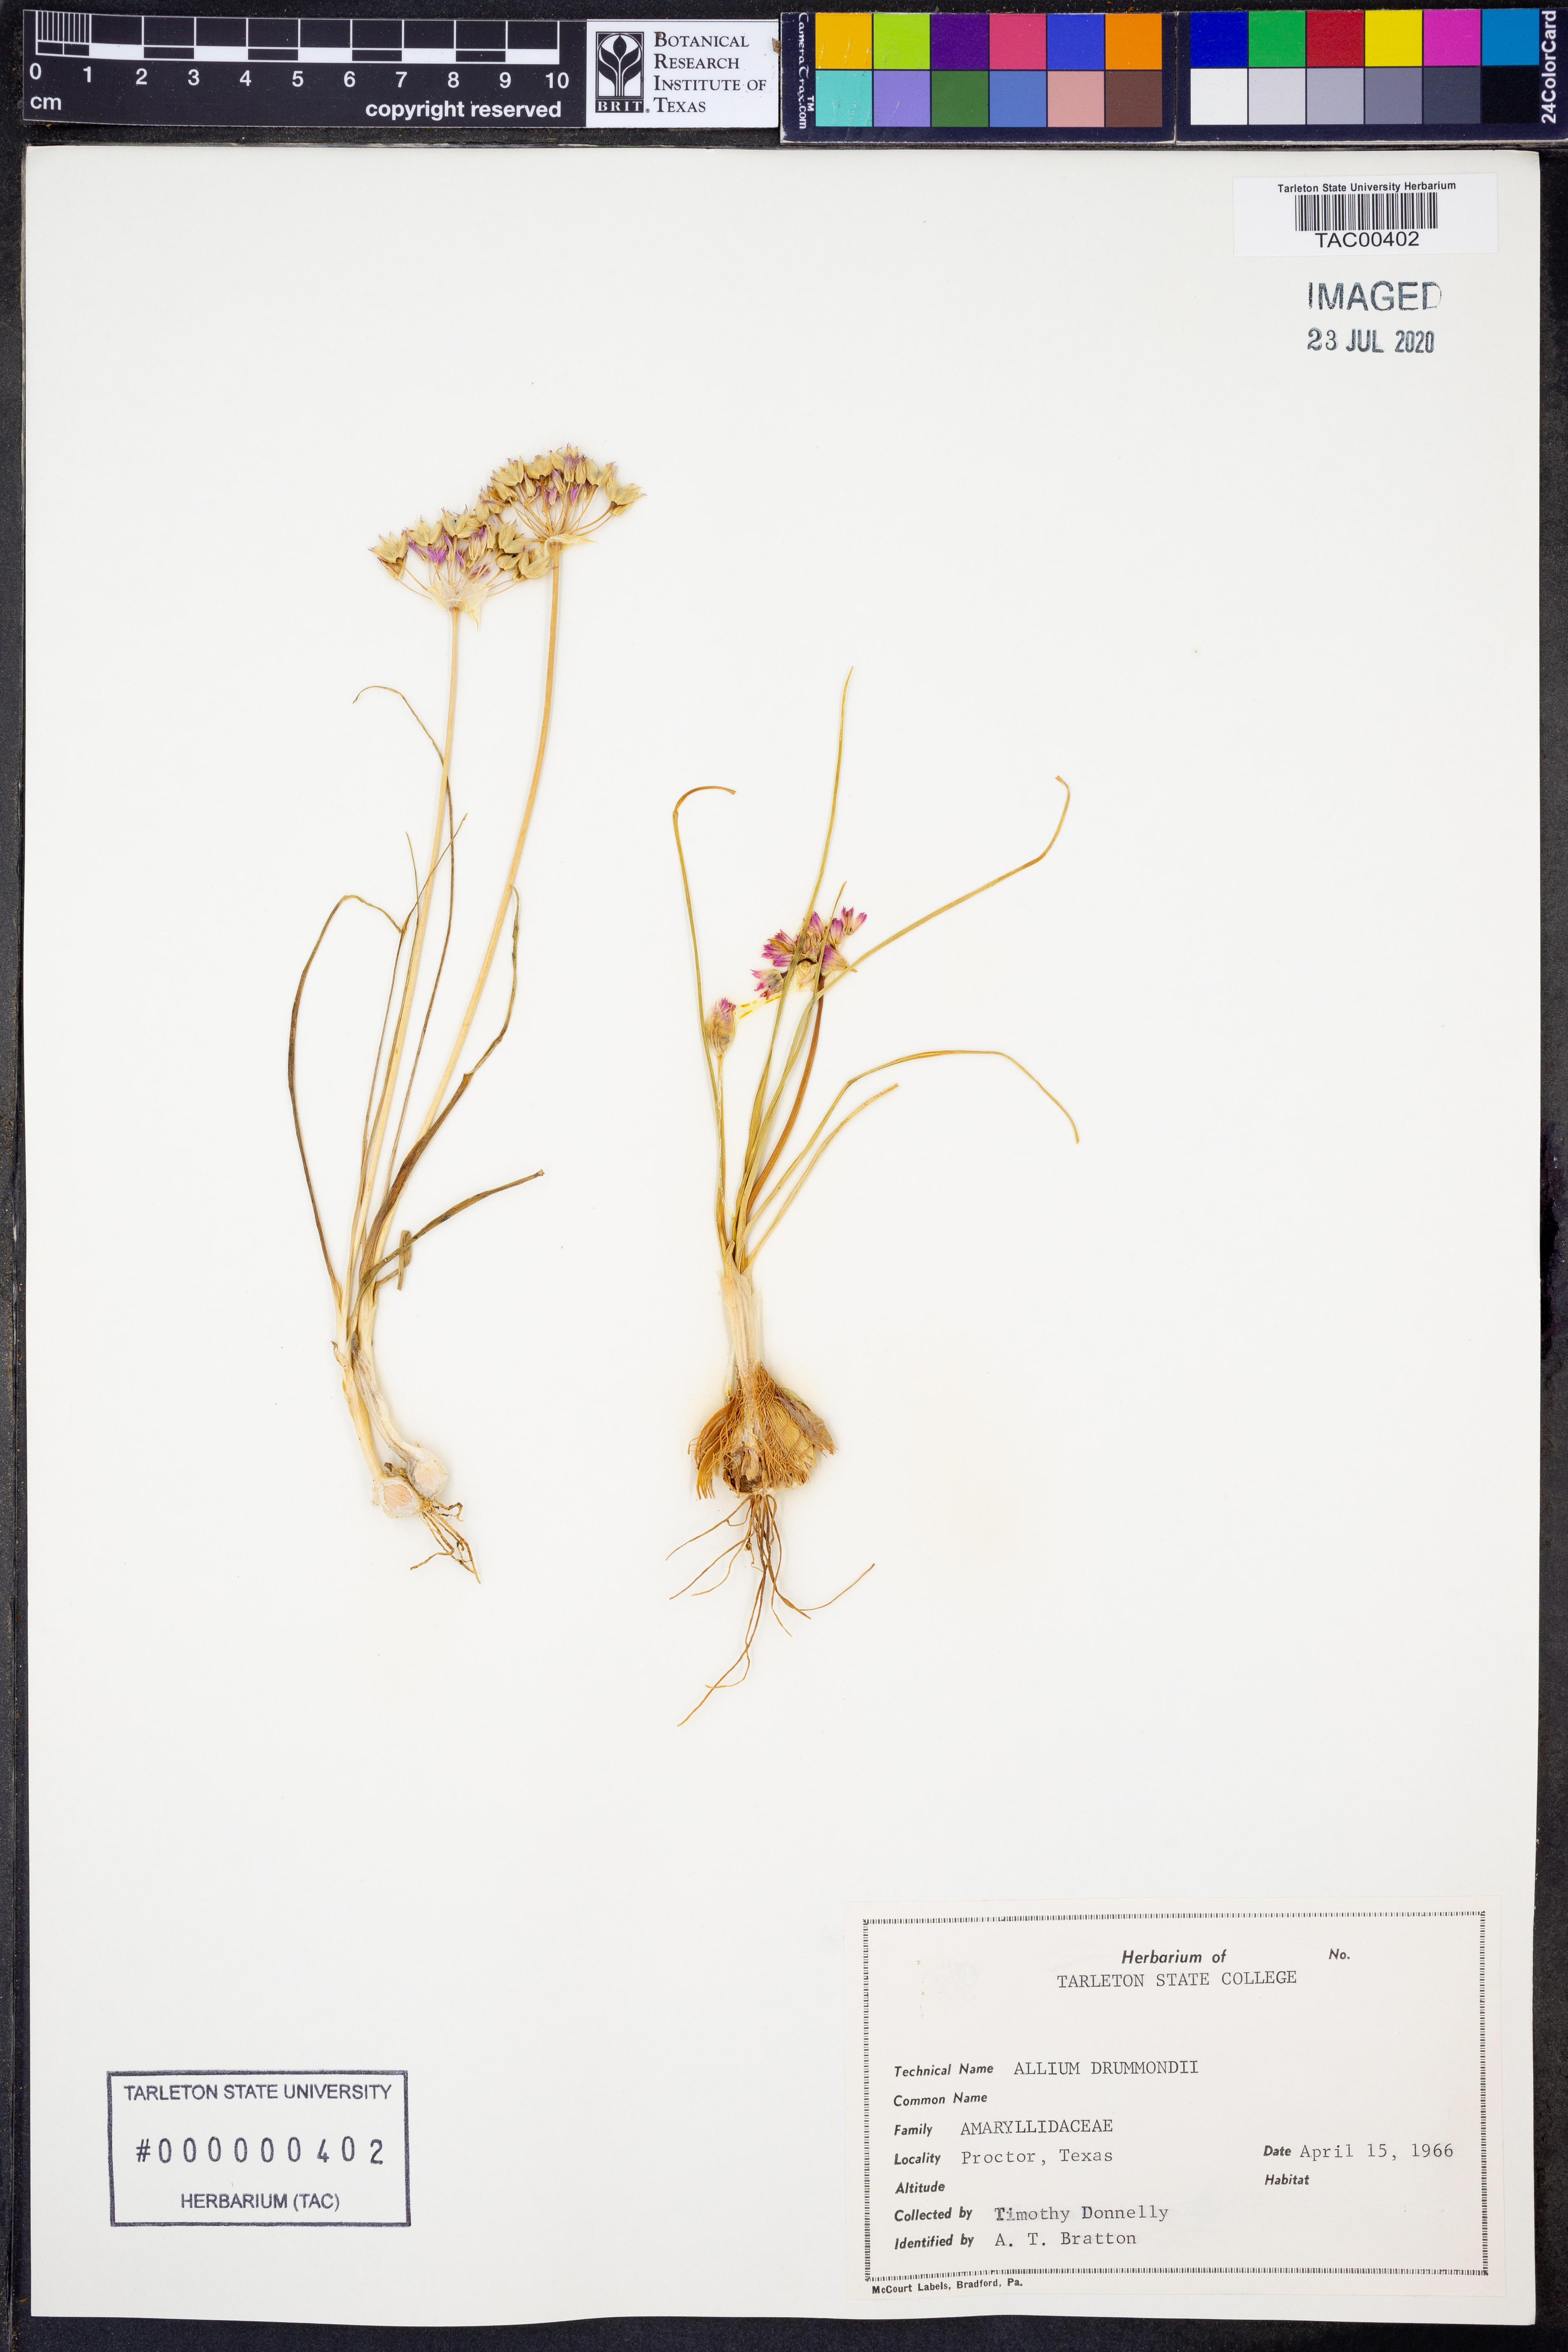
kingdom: Plantae
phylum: Tracheophyta
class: Liliopsida
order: Asparagales
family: Amaryllidaceae
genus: Allium
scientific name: Allium drummondii
